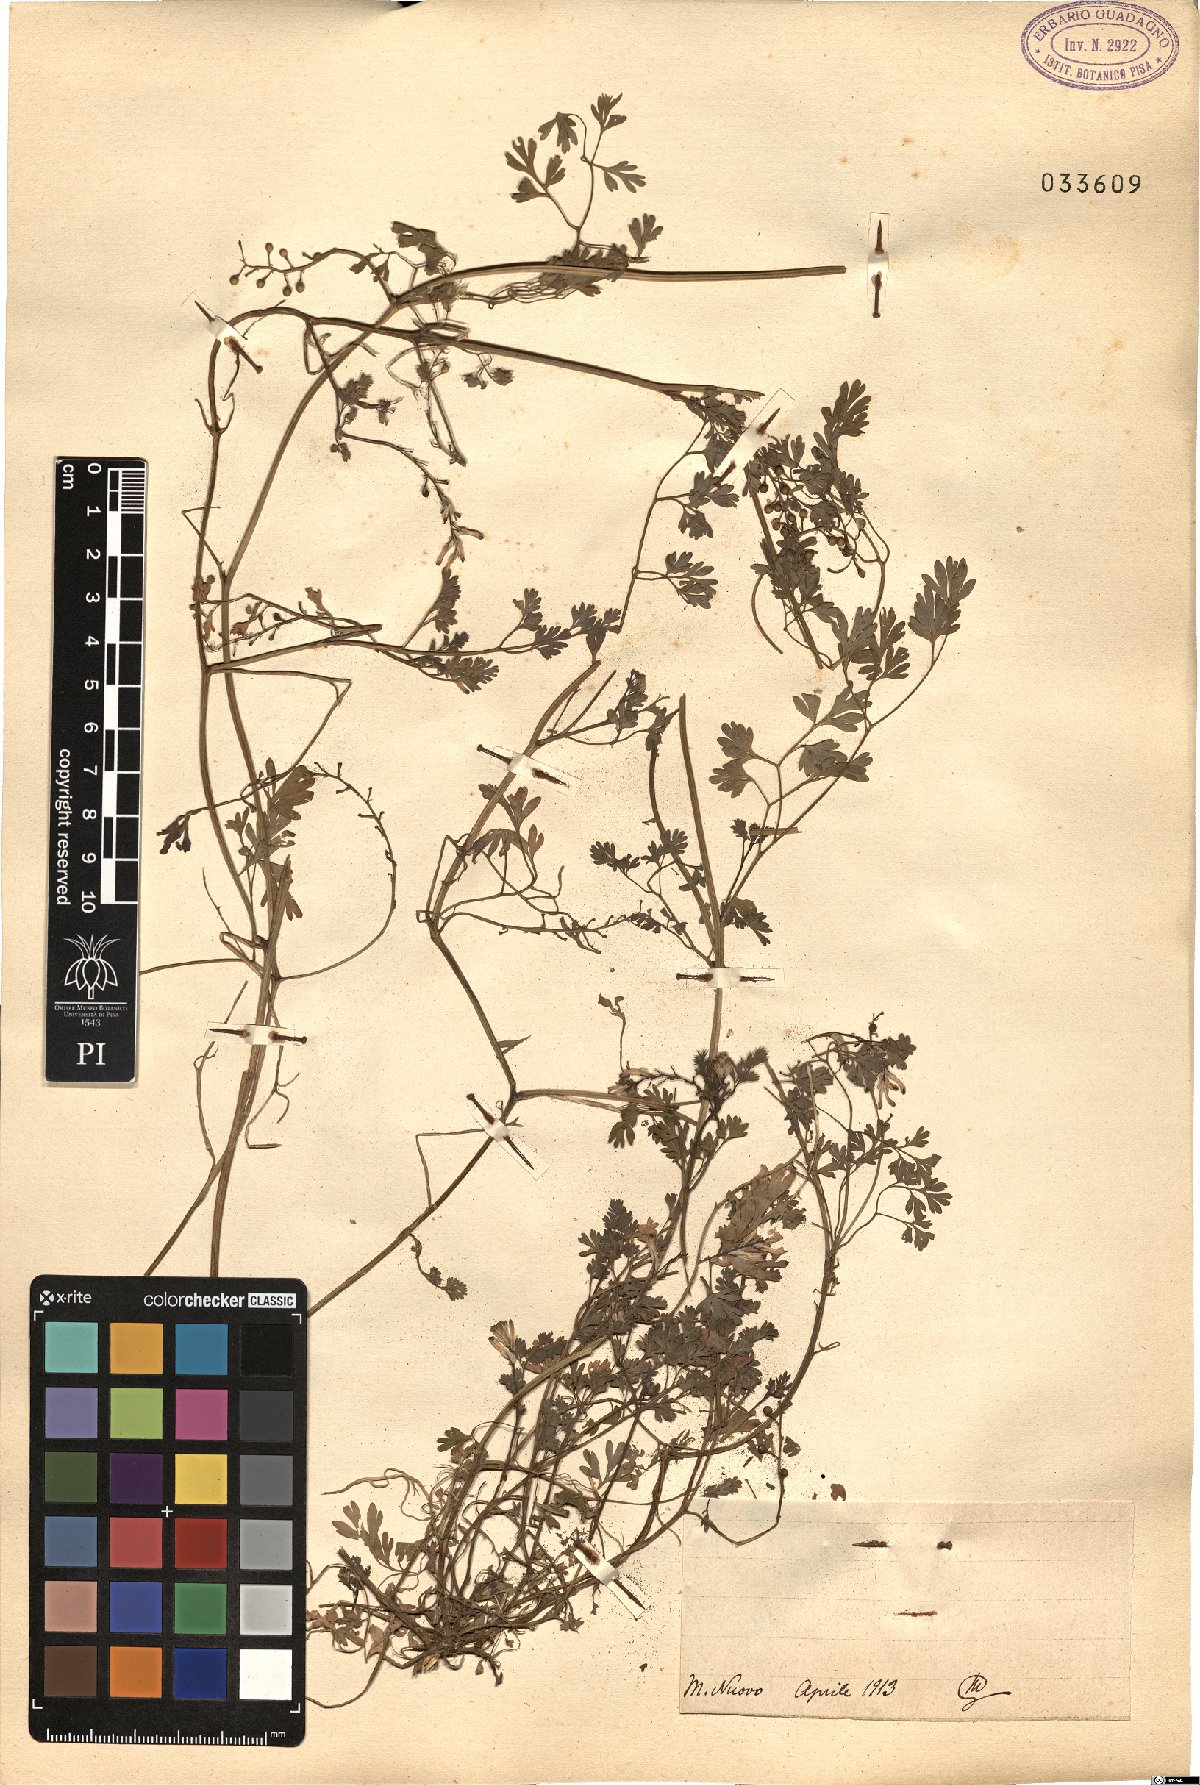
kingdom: Plantae
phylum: Tracheophyta
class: Magnoliopsida
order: Ranunculales
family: Papaveraceae
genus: Fumaria
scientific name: Fumaria
